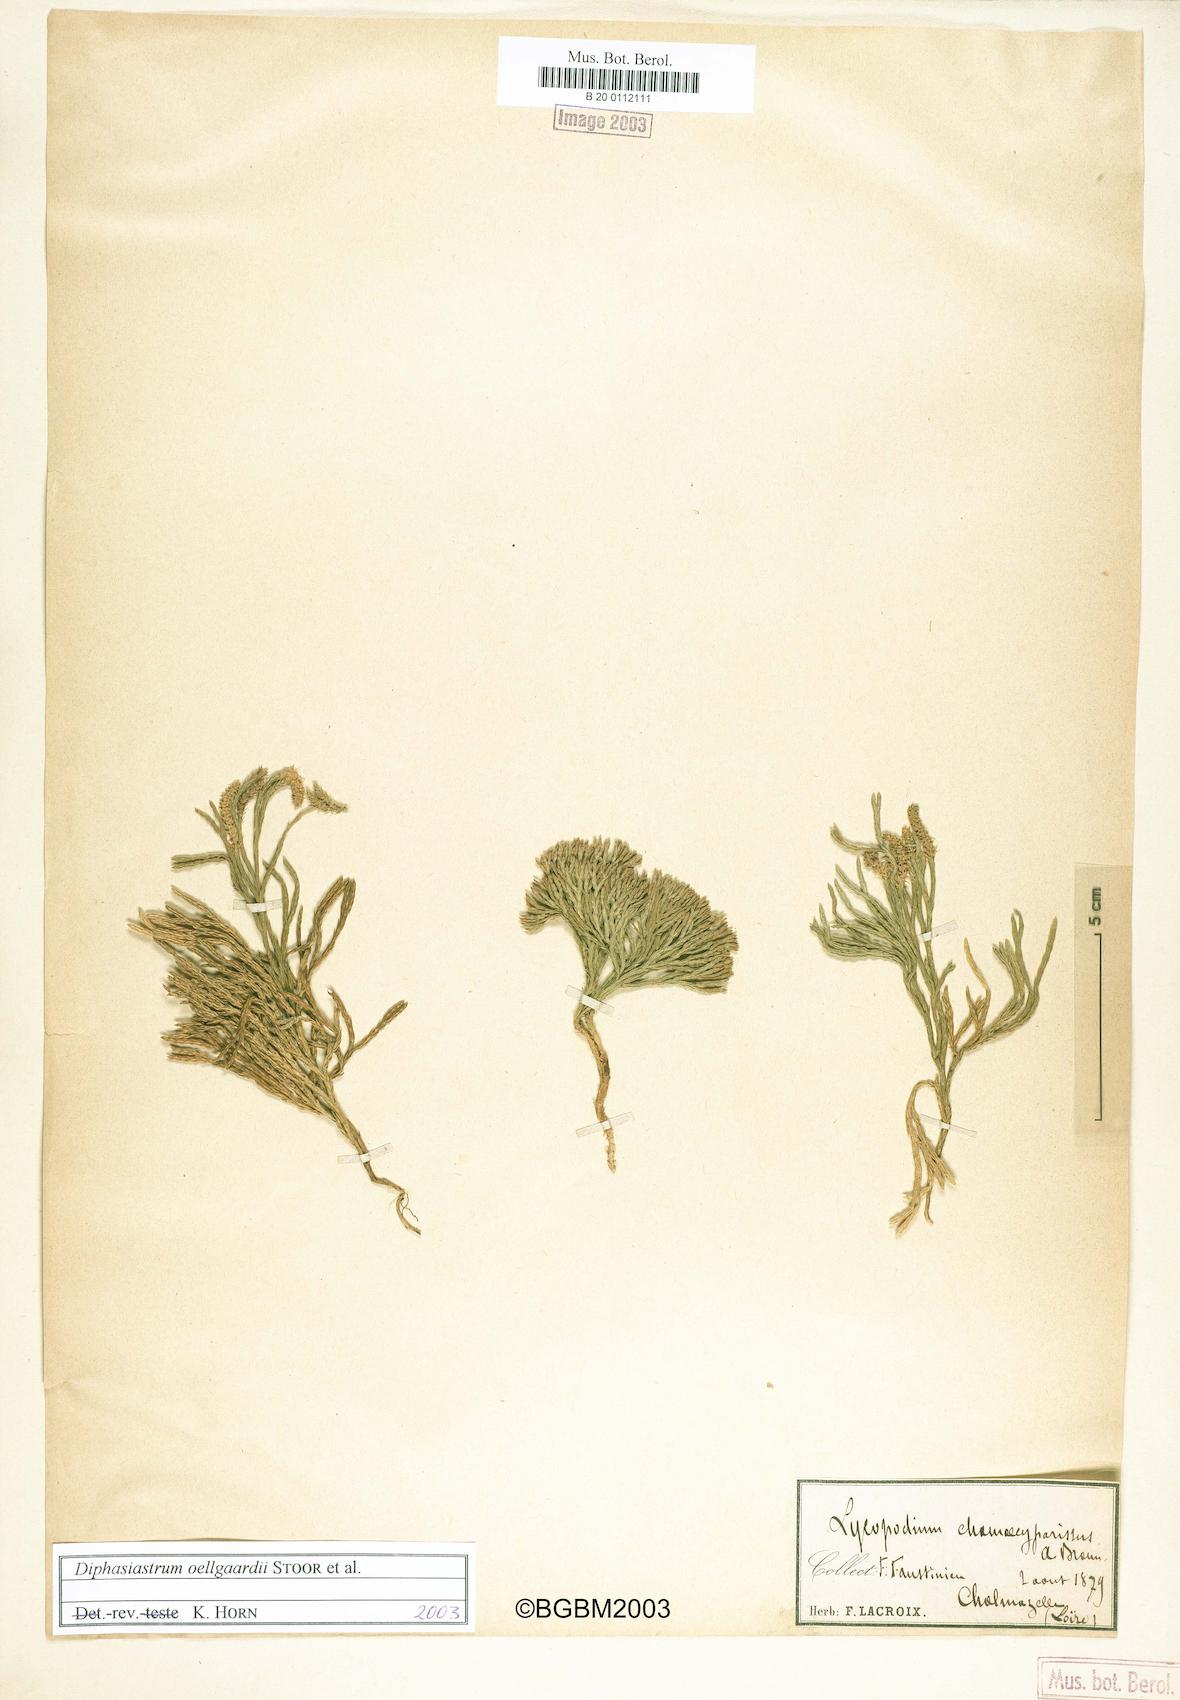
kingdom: Plantae
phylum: Tracheophyta
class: Lycopodiopsida
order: Lycopodiales
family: Lycopodiaceae
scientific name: Lycopodiaceae
